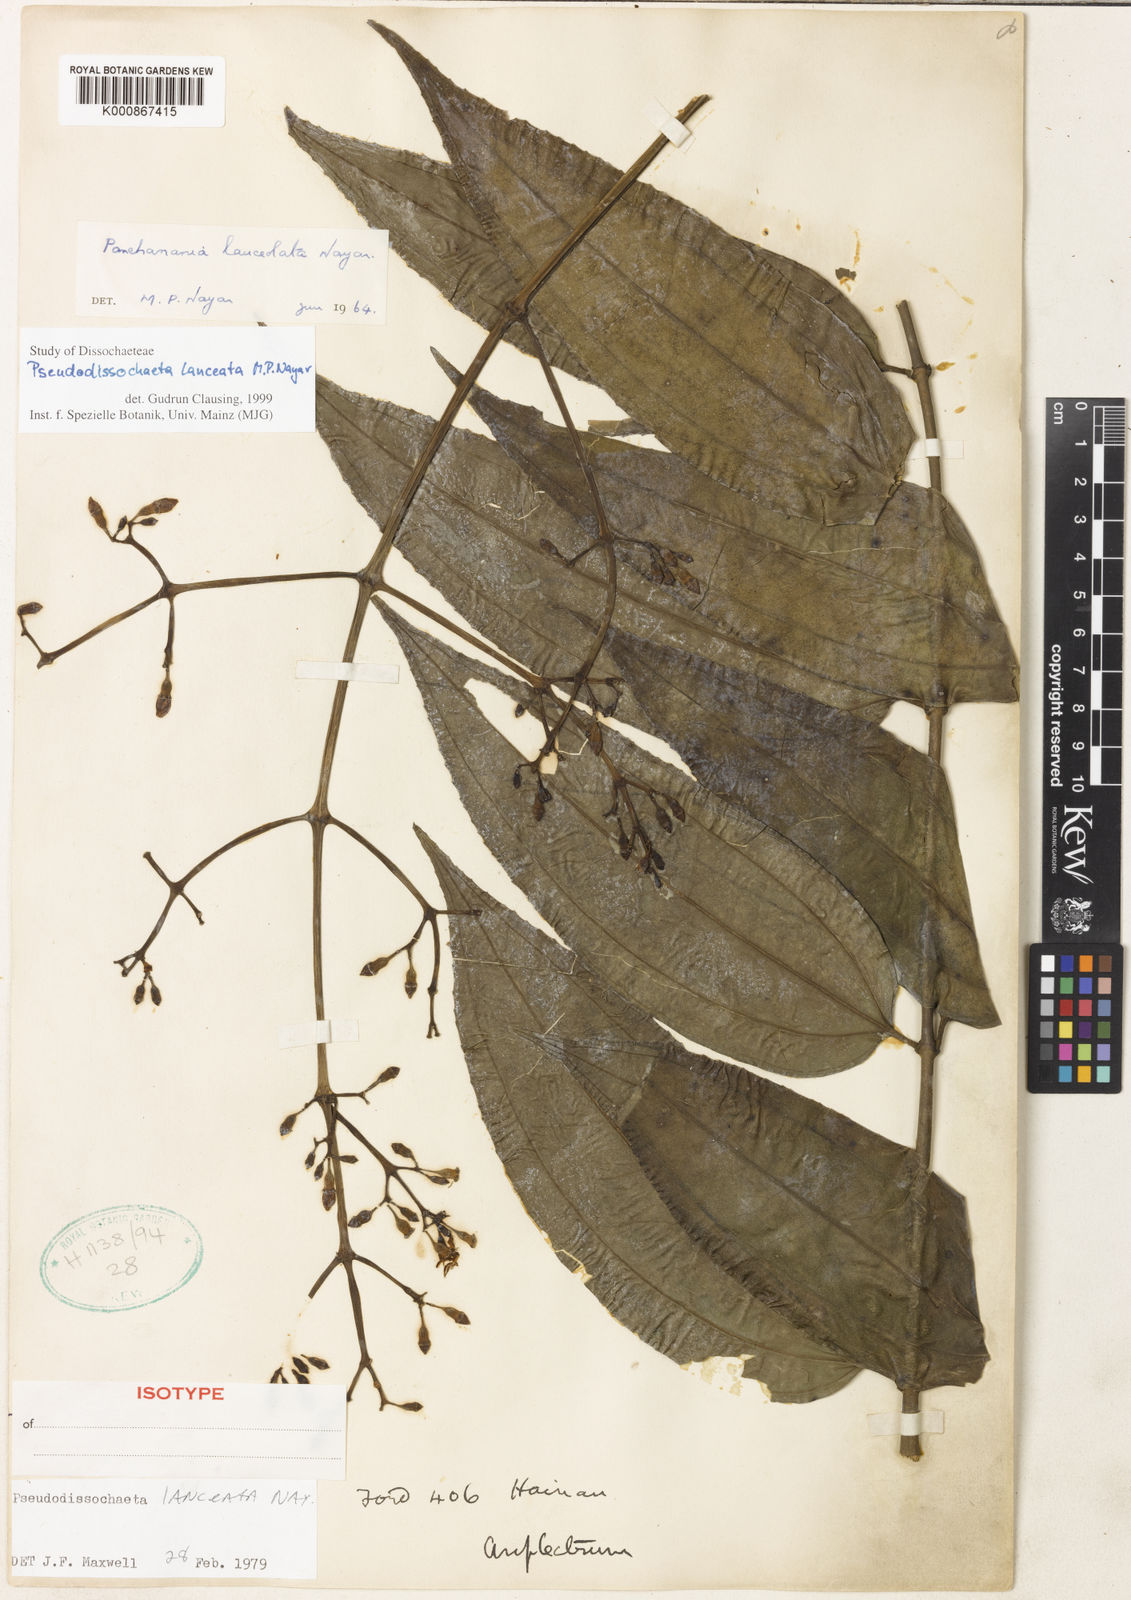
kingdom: Plantae
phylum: Tracheophyta
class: Magnoliopsida
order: Myrtales
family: Melastomataceae
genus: Pseudodissochaeta
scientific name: Pseudodissochaeta lanceata
